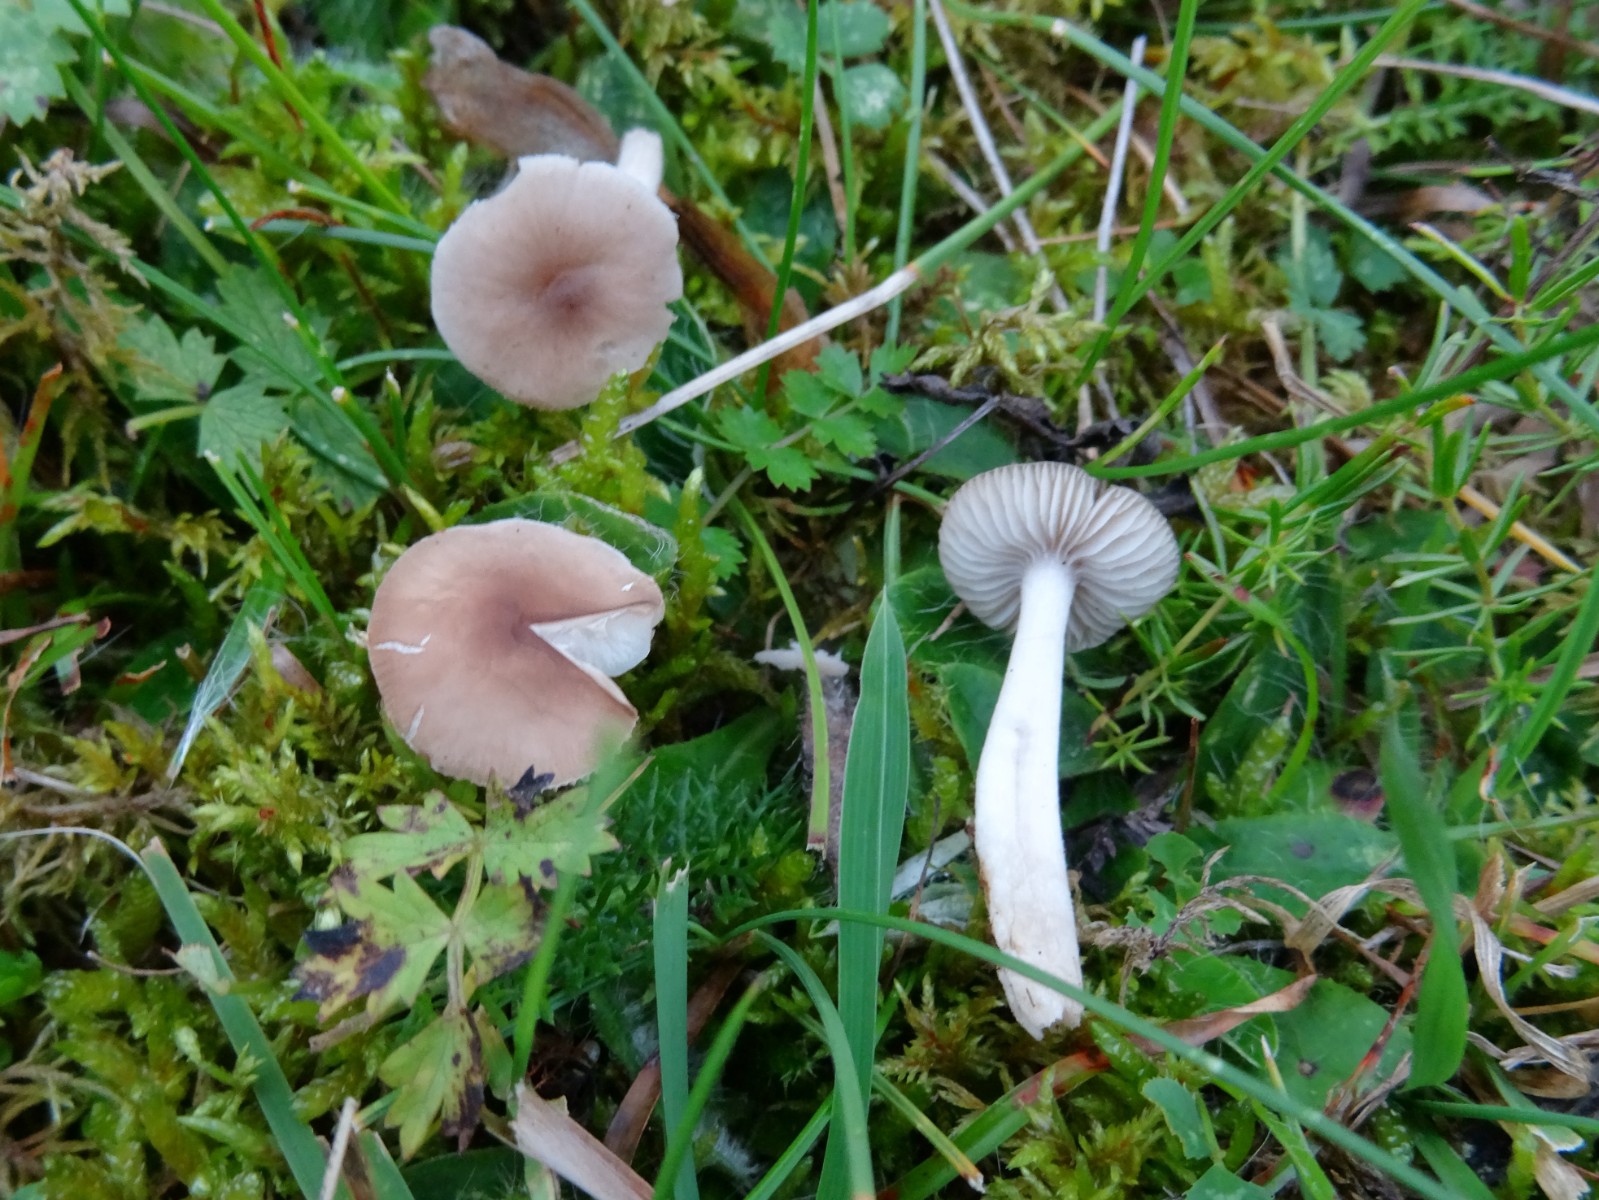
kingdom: Fungi
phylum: Basidiomycota
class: Agaricomycetes
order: Agaricales
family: Hygrophoraceae
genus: Cuphophyllus
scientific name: Cuphophyllus fornicatus
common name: gråbrun vokshat
